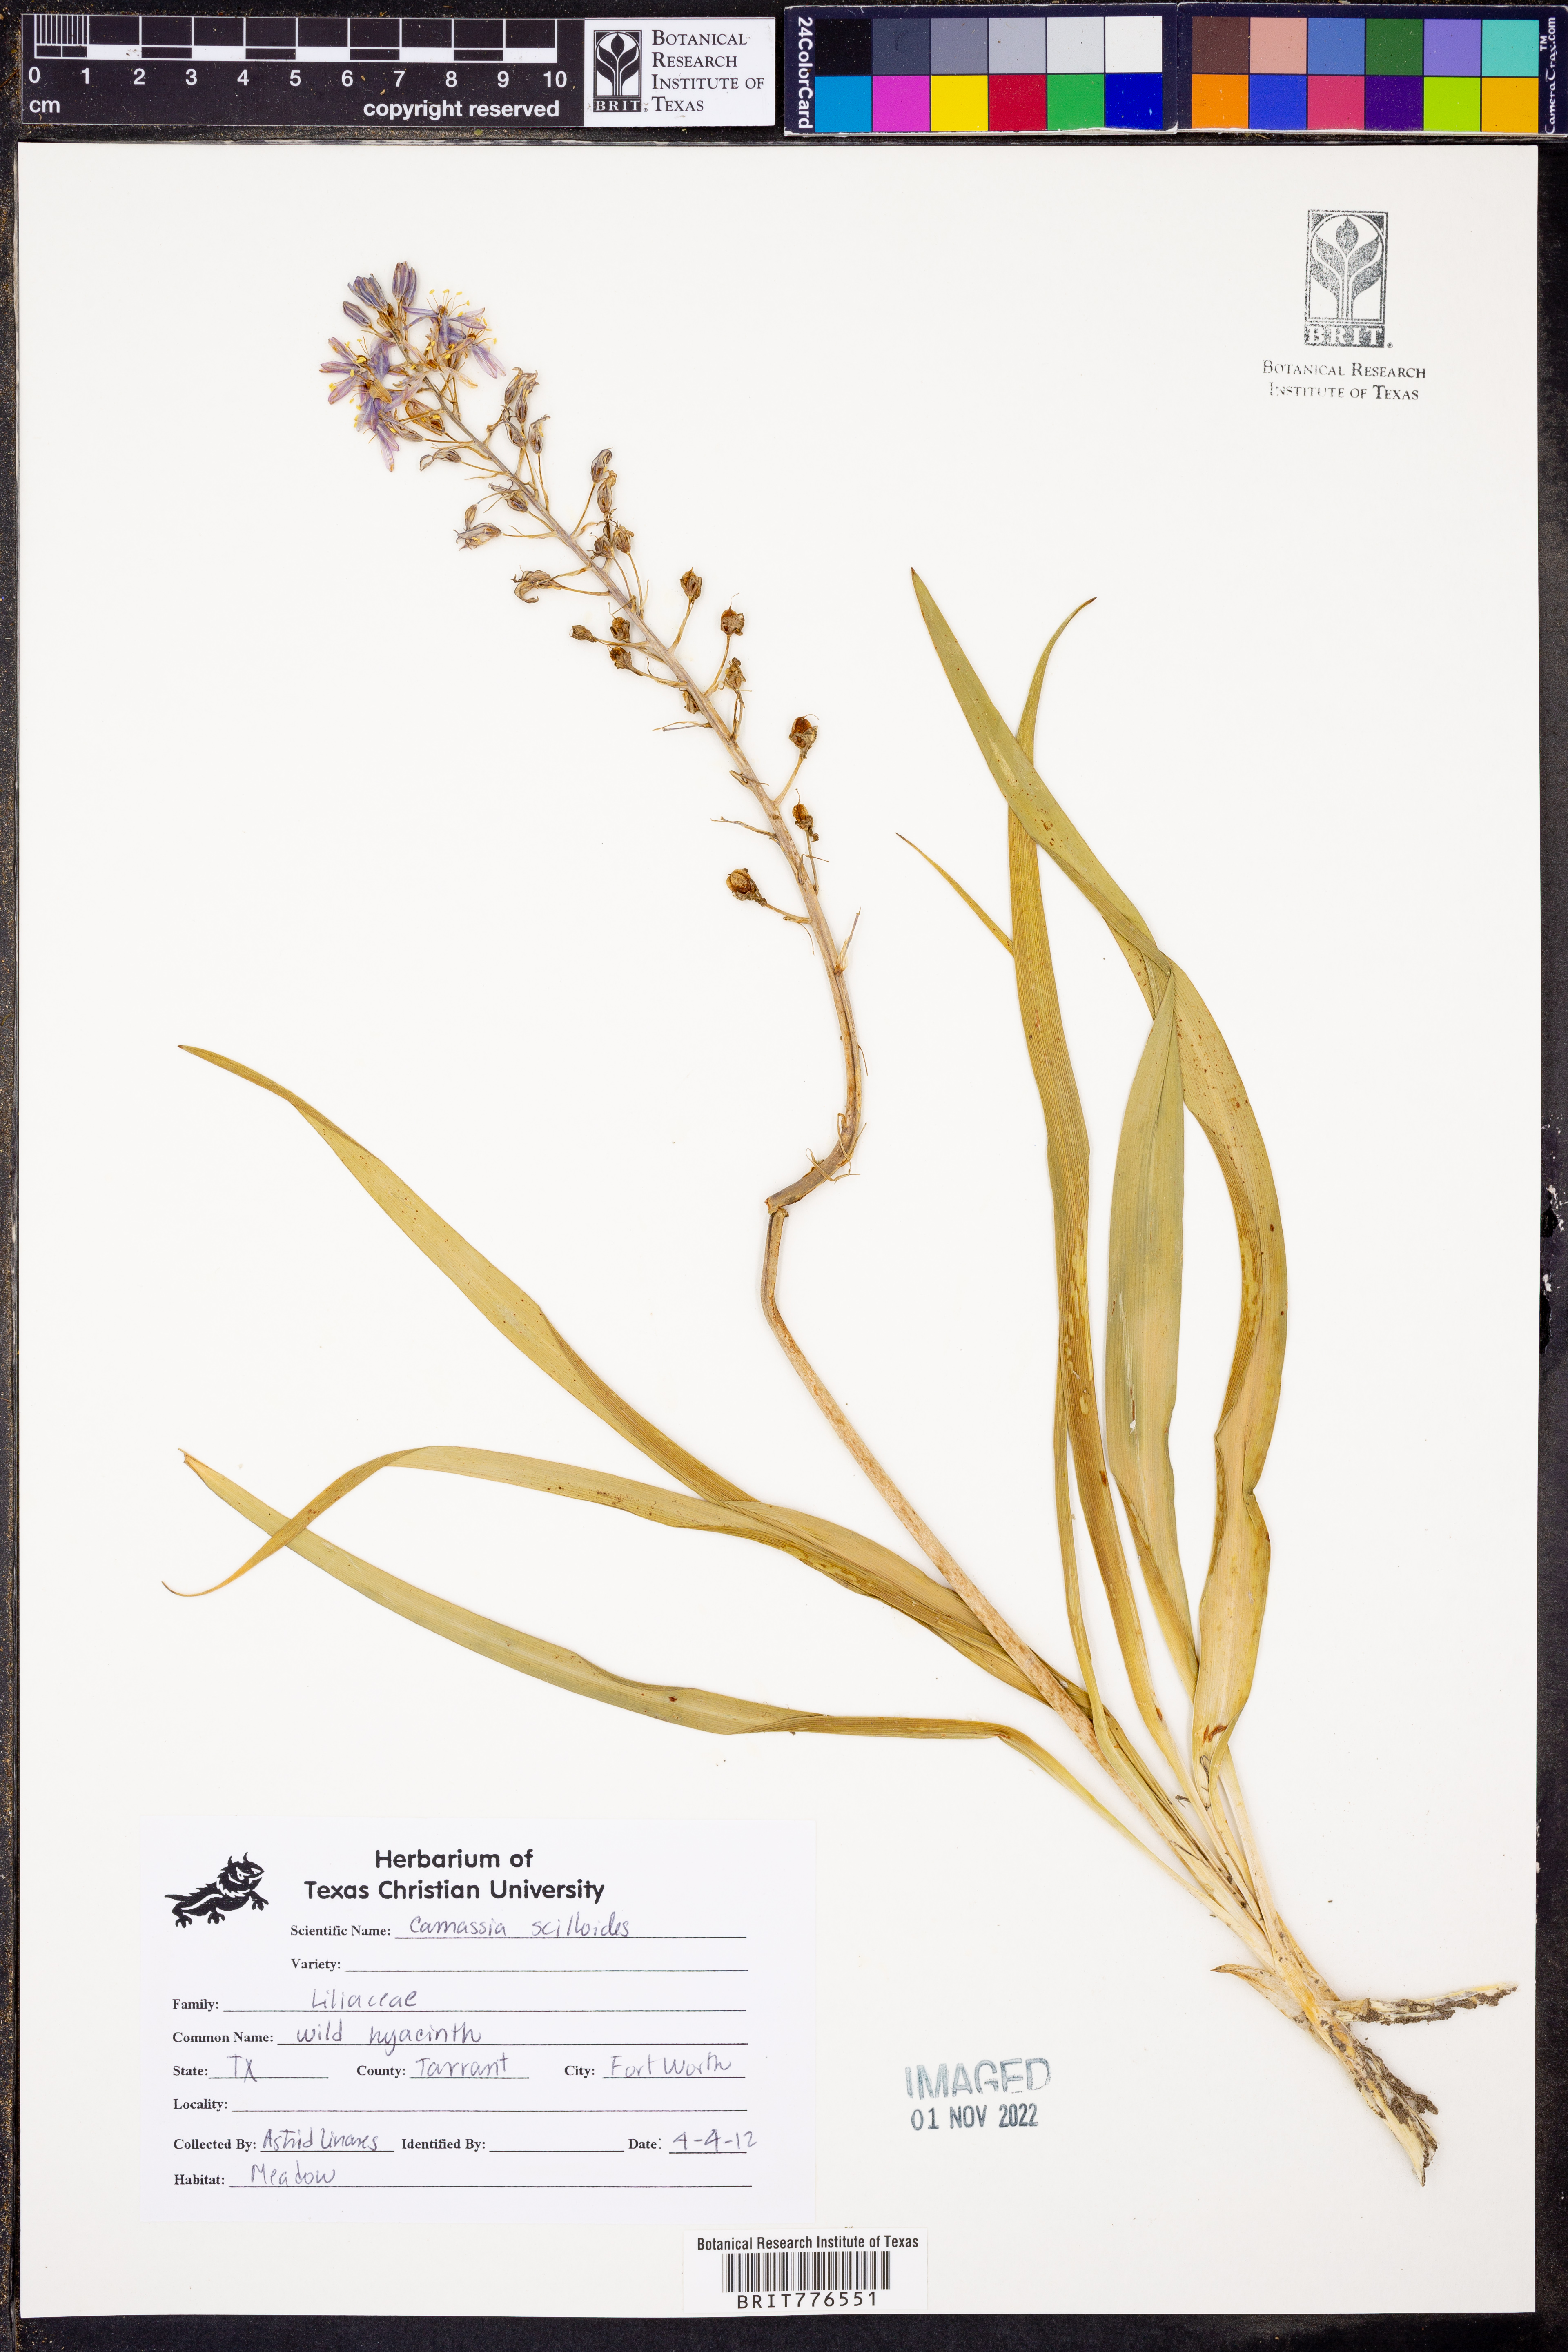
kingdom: Plantae
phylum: Tracheophyta
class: Liliopsida
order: Asparagales
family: Asparagaceae
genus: Camassia
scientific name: Camassia scilloides
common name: Wild hyacinth
